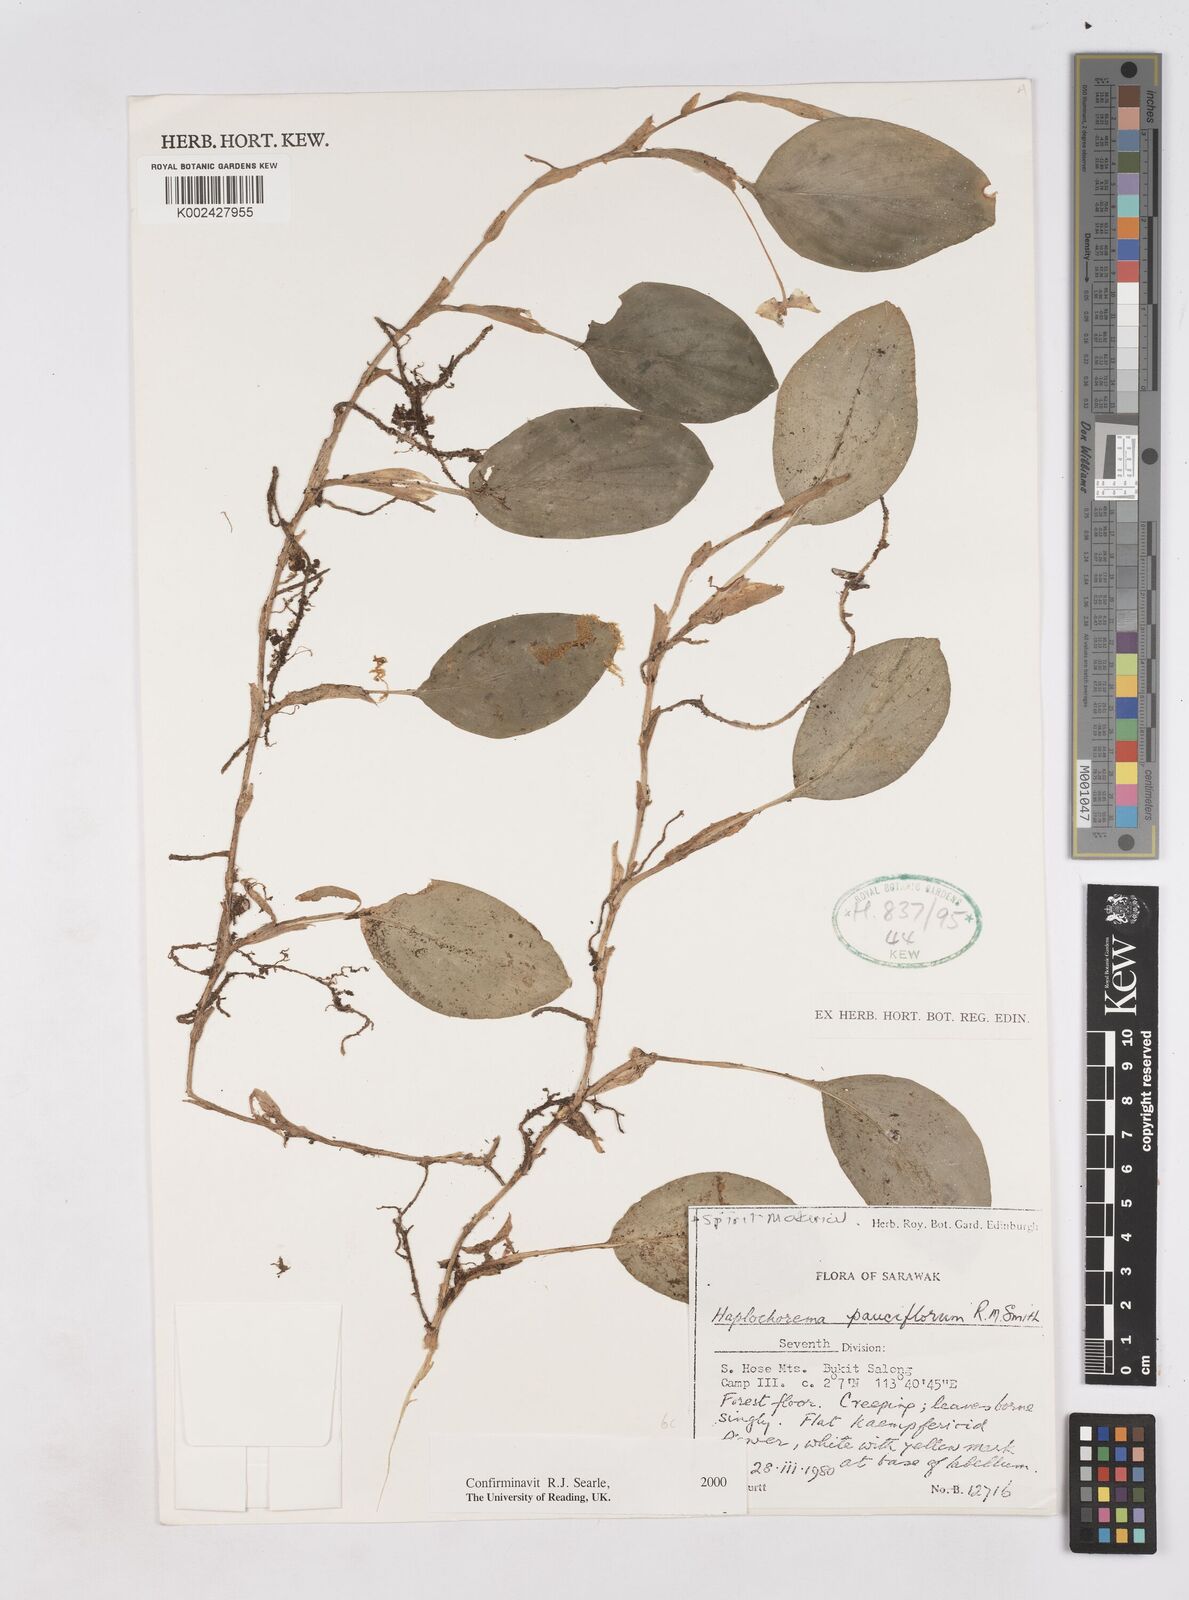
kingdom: Plantae
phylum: Tracheophyta
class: Liliopsida
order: Zingiberales
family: Zingiberaceae
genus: Boesenbergia
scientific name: Boesenbergia pauciflora
